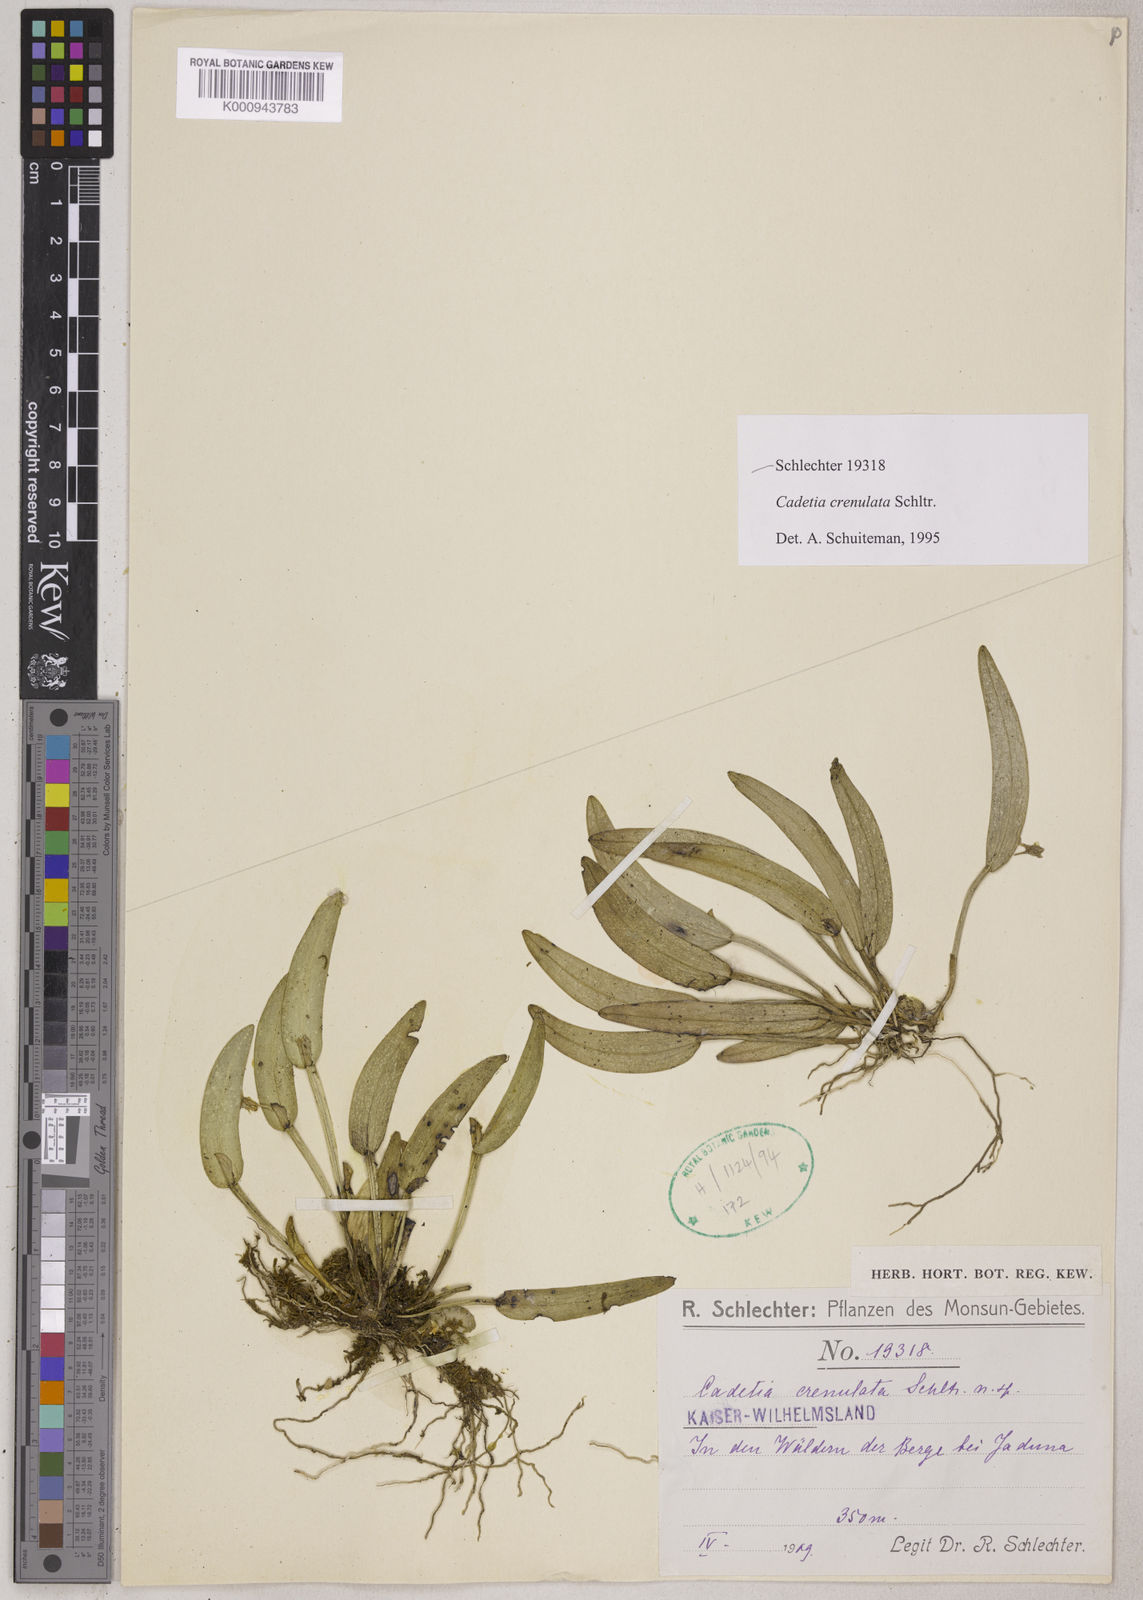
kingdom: Plantae
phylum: Tracheophyta
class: Liliopsida
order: Asparagales
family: Orchidaceae
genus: Dendrobium
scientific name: Dendrobium rumphiae
